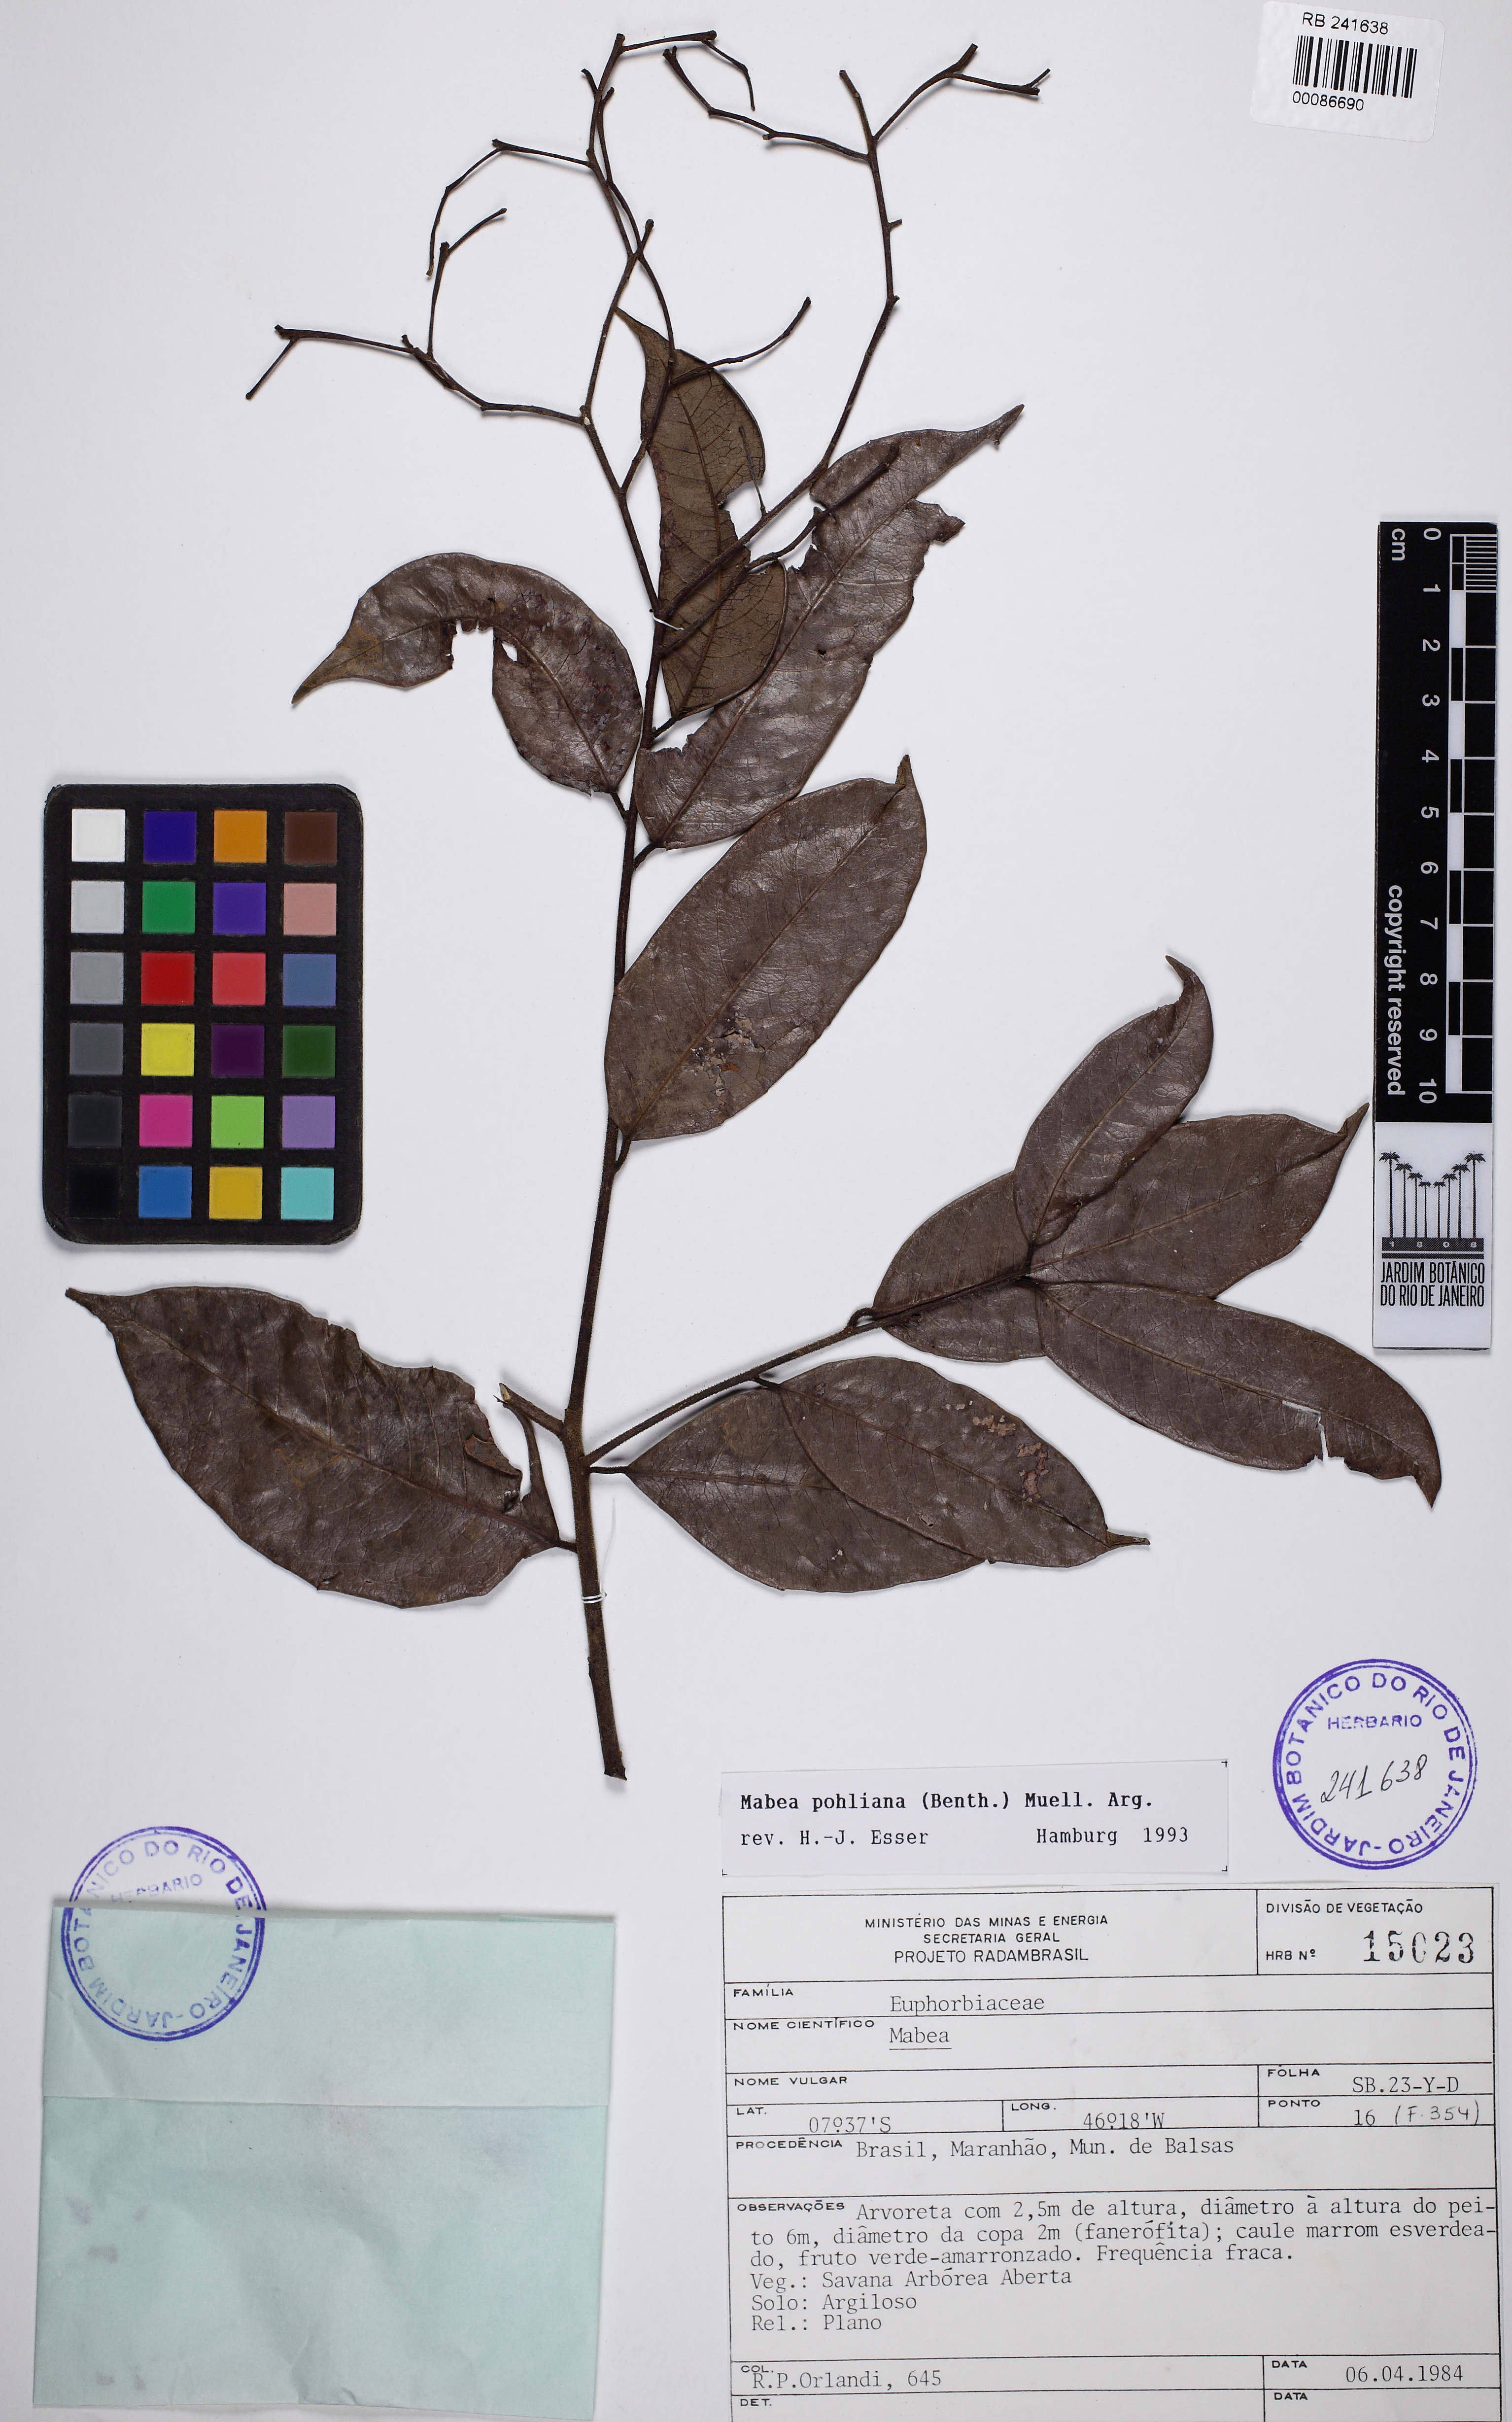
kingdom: Plantae
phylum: Tracheophyta
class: Magnoliopsida
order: Malpighiales
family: Euphorbiaceae
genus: Mabea
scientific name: Mabea pohliana
